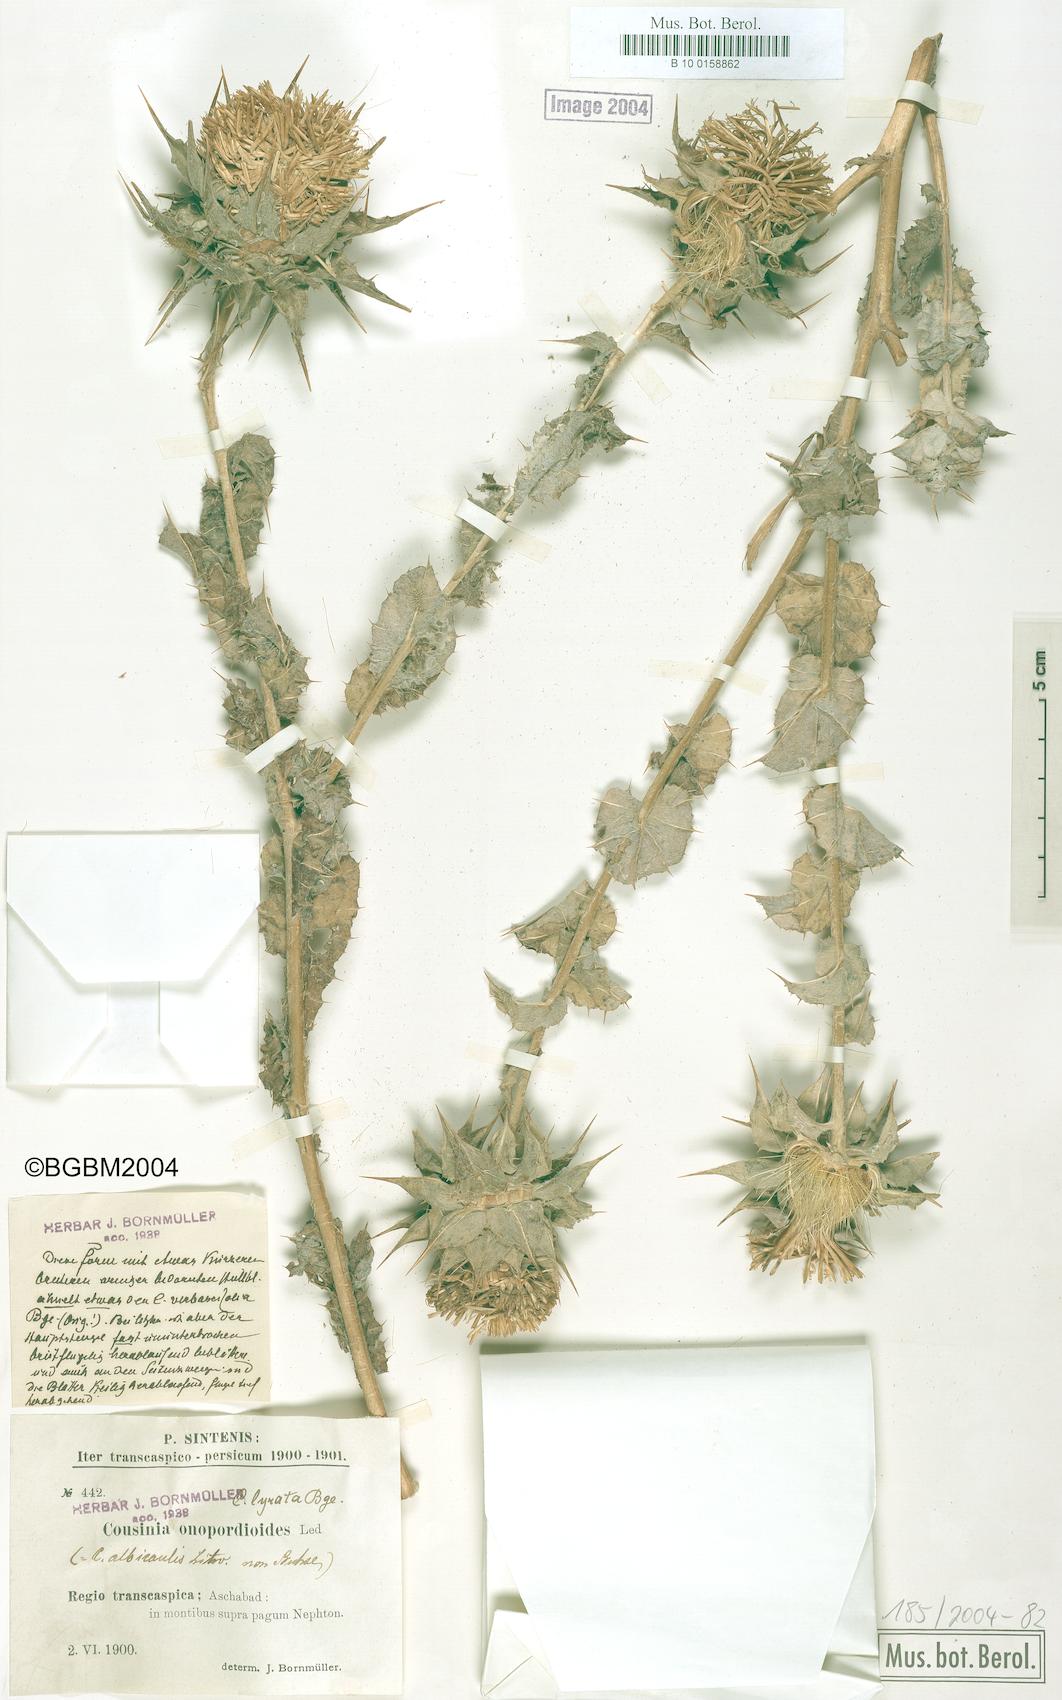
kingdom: Plantae
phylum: Tracheophyta
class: Magnoliopsida
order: Asterales
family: Asteraceae
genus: Cousinia
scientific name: Cousinia onopordioides
